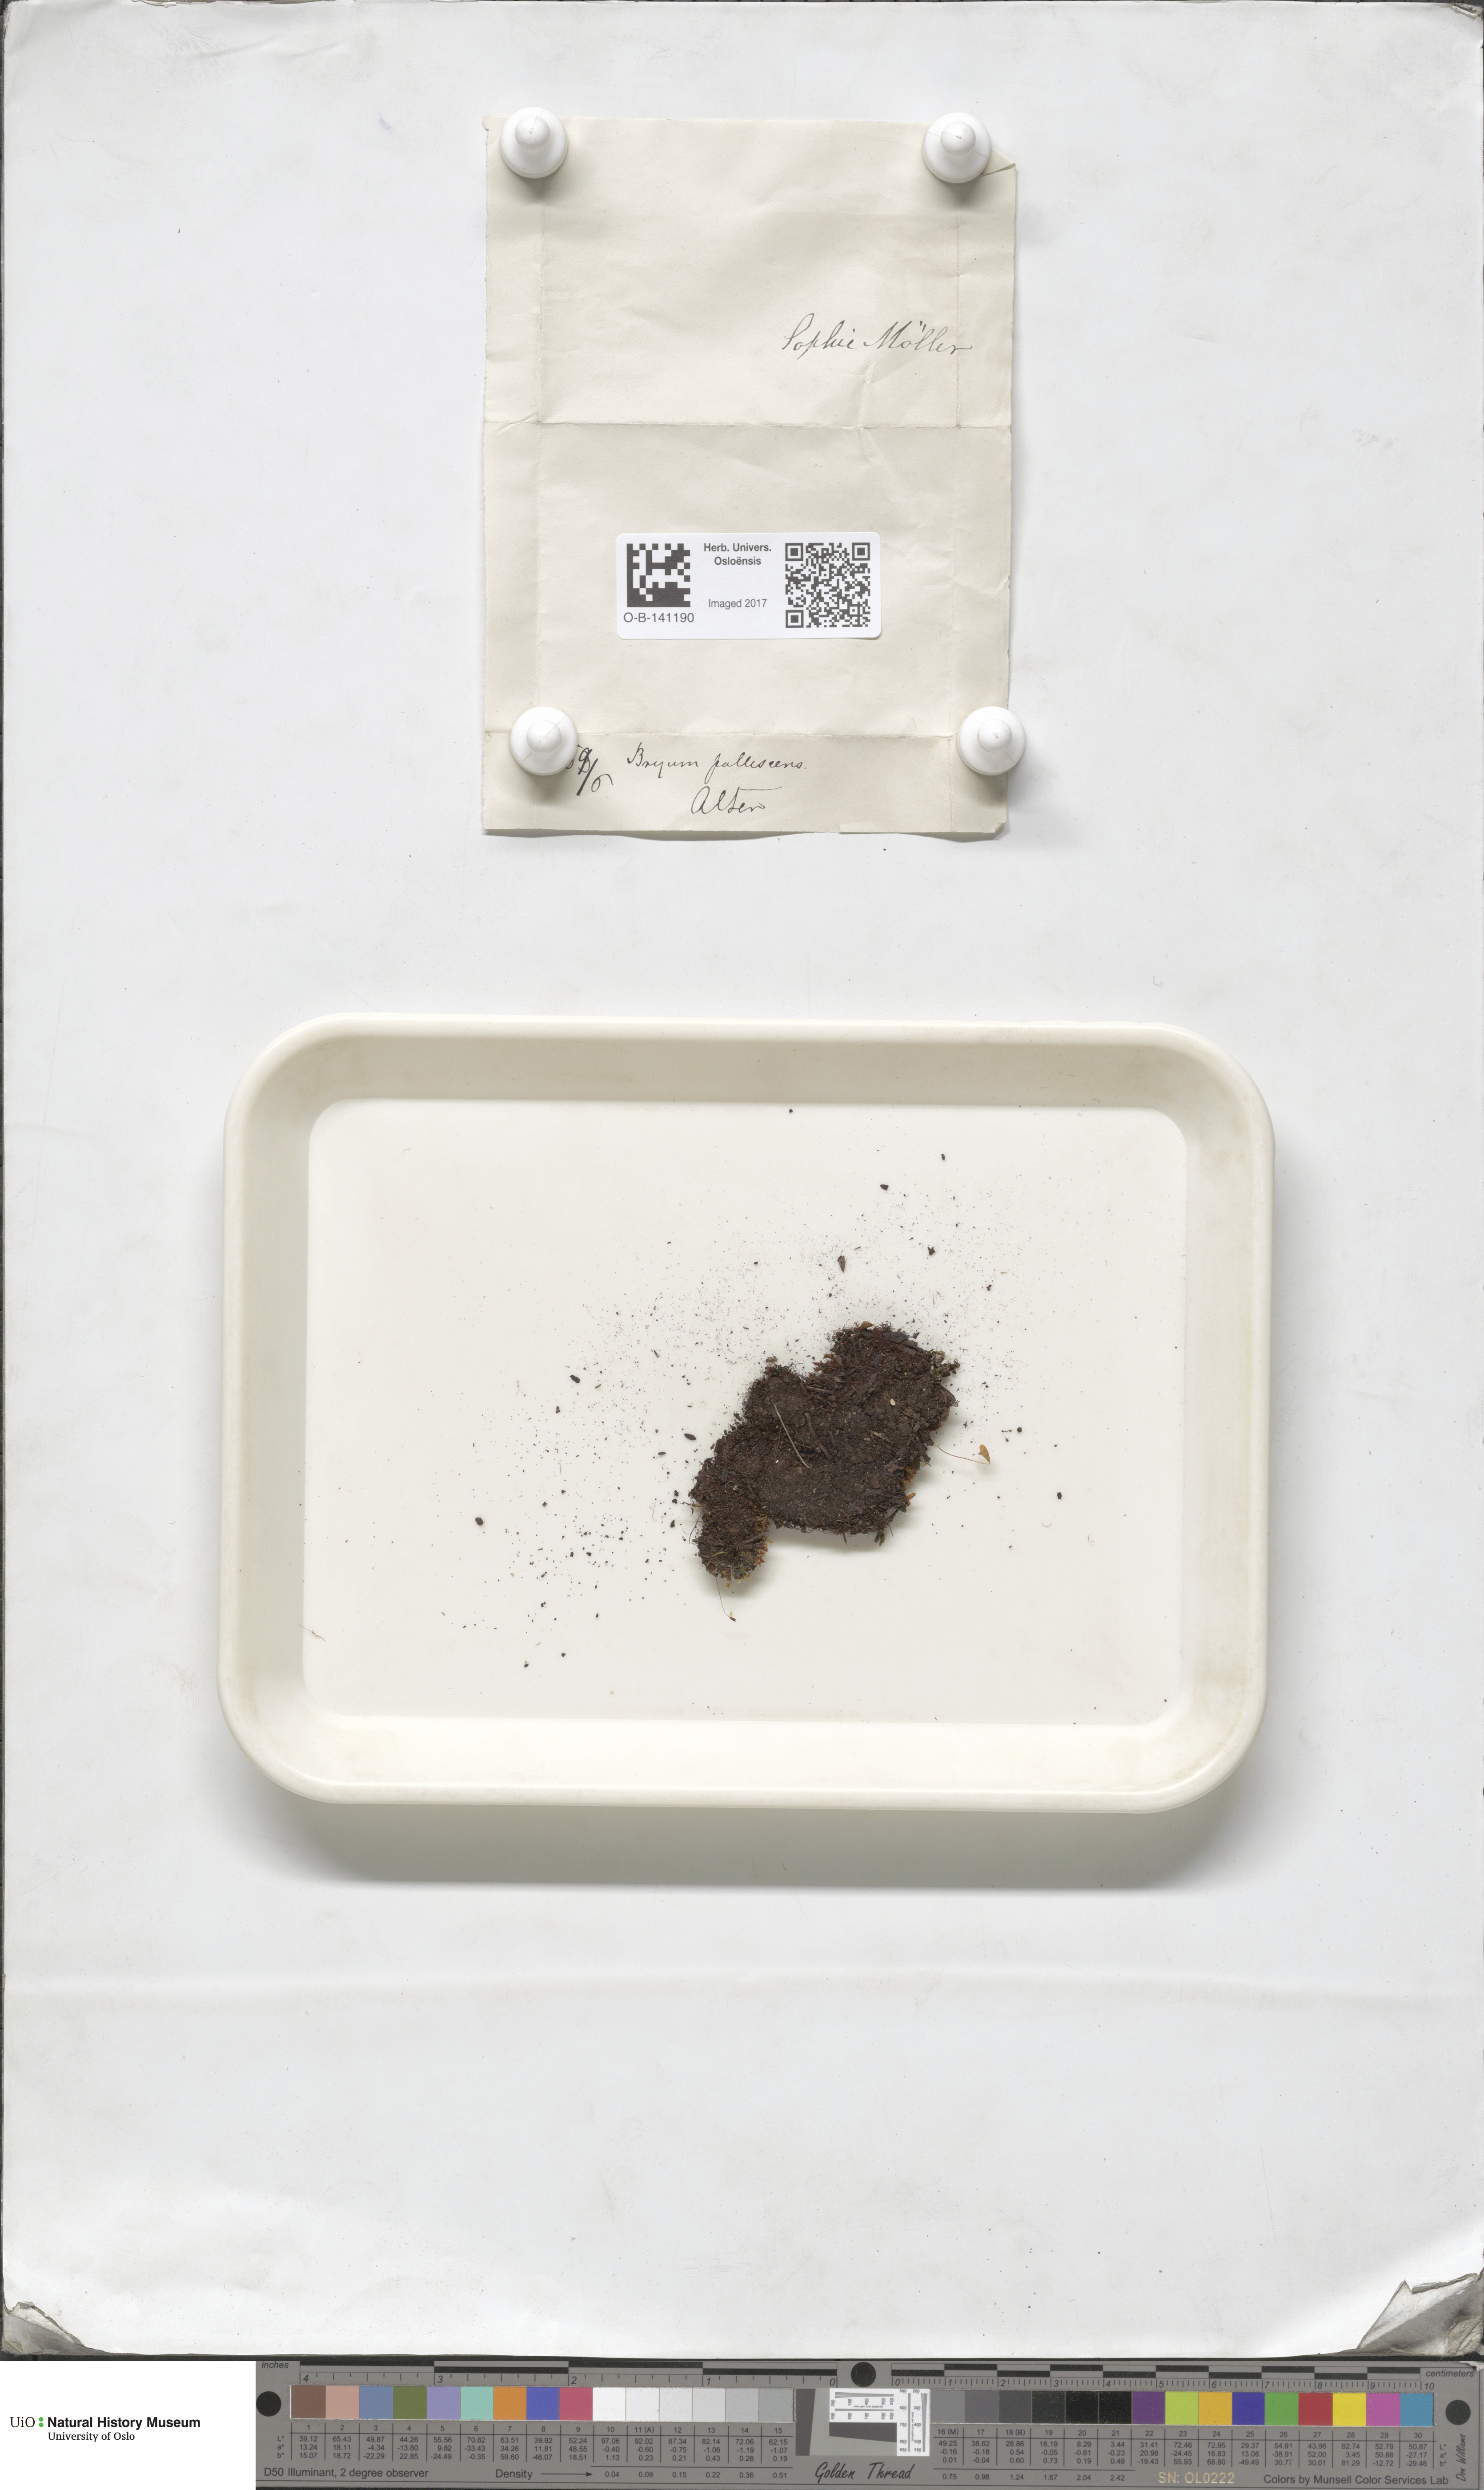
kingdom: Plantae
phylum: Bryophyta
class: Bryopsida
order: Bryales
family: Bryaceae
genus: Ptychostomum
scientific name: Ptychostomum pallens
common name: Pale thread-moss
